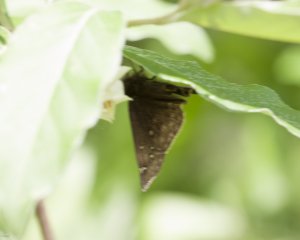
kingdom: Animalia
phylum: Arthropoda
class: Insecta
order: Lepidoptera
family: Hesperiidae
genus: Gesta
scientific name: Gesta
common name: Juvenal's Duskywing
